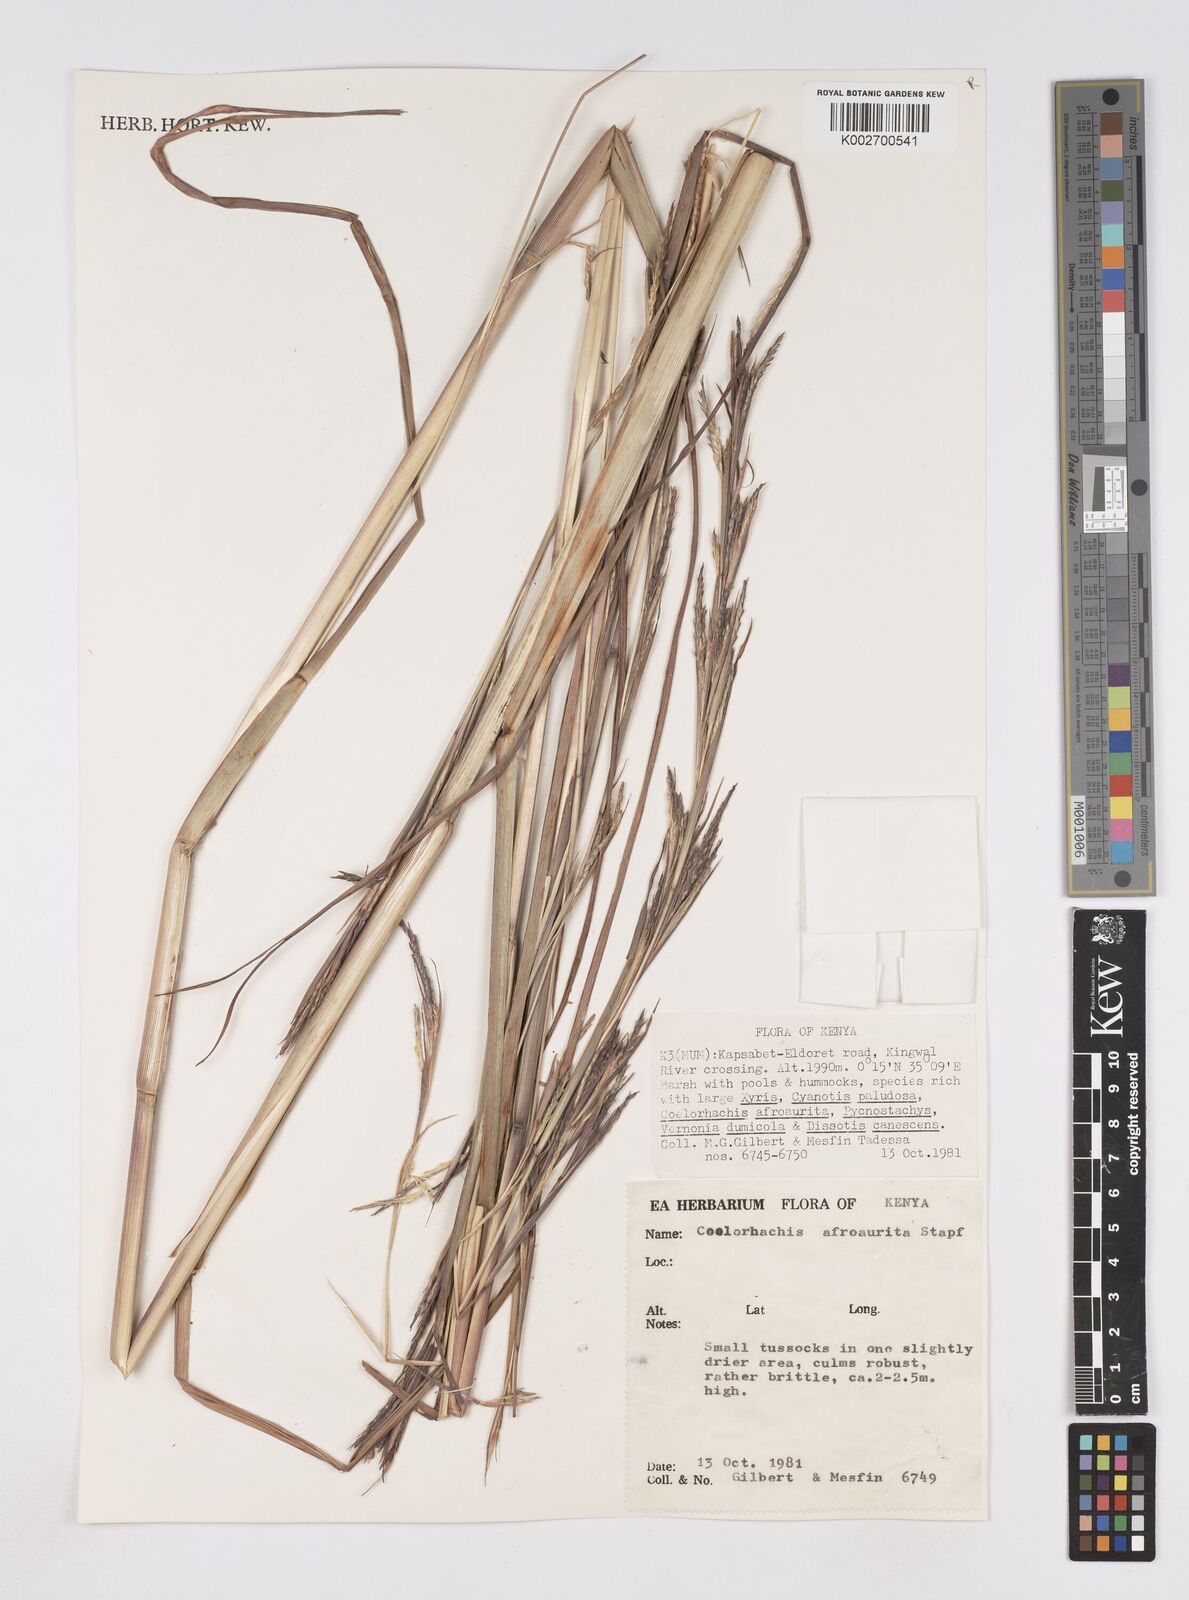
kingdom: Plantae
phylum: Tracheophyta
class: Liliopsida
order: Poales
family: Poaceae
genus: Rottboellia
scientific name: Rottboellia afraurita
